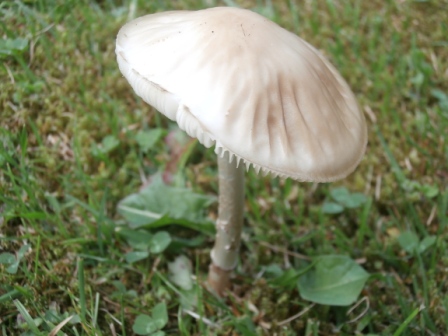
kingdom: Fungi
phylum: Basidiomycota
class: Agaricomycetes
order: Agaricales
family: Physalacriaceae
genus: Hymenopellis
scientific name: Hymenopellis radicata
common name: almindelig pælerodshat
